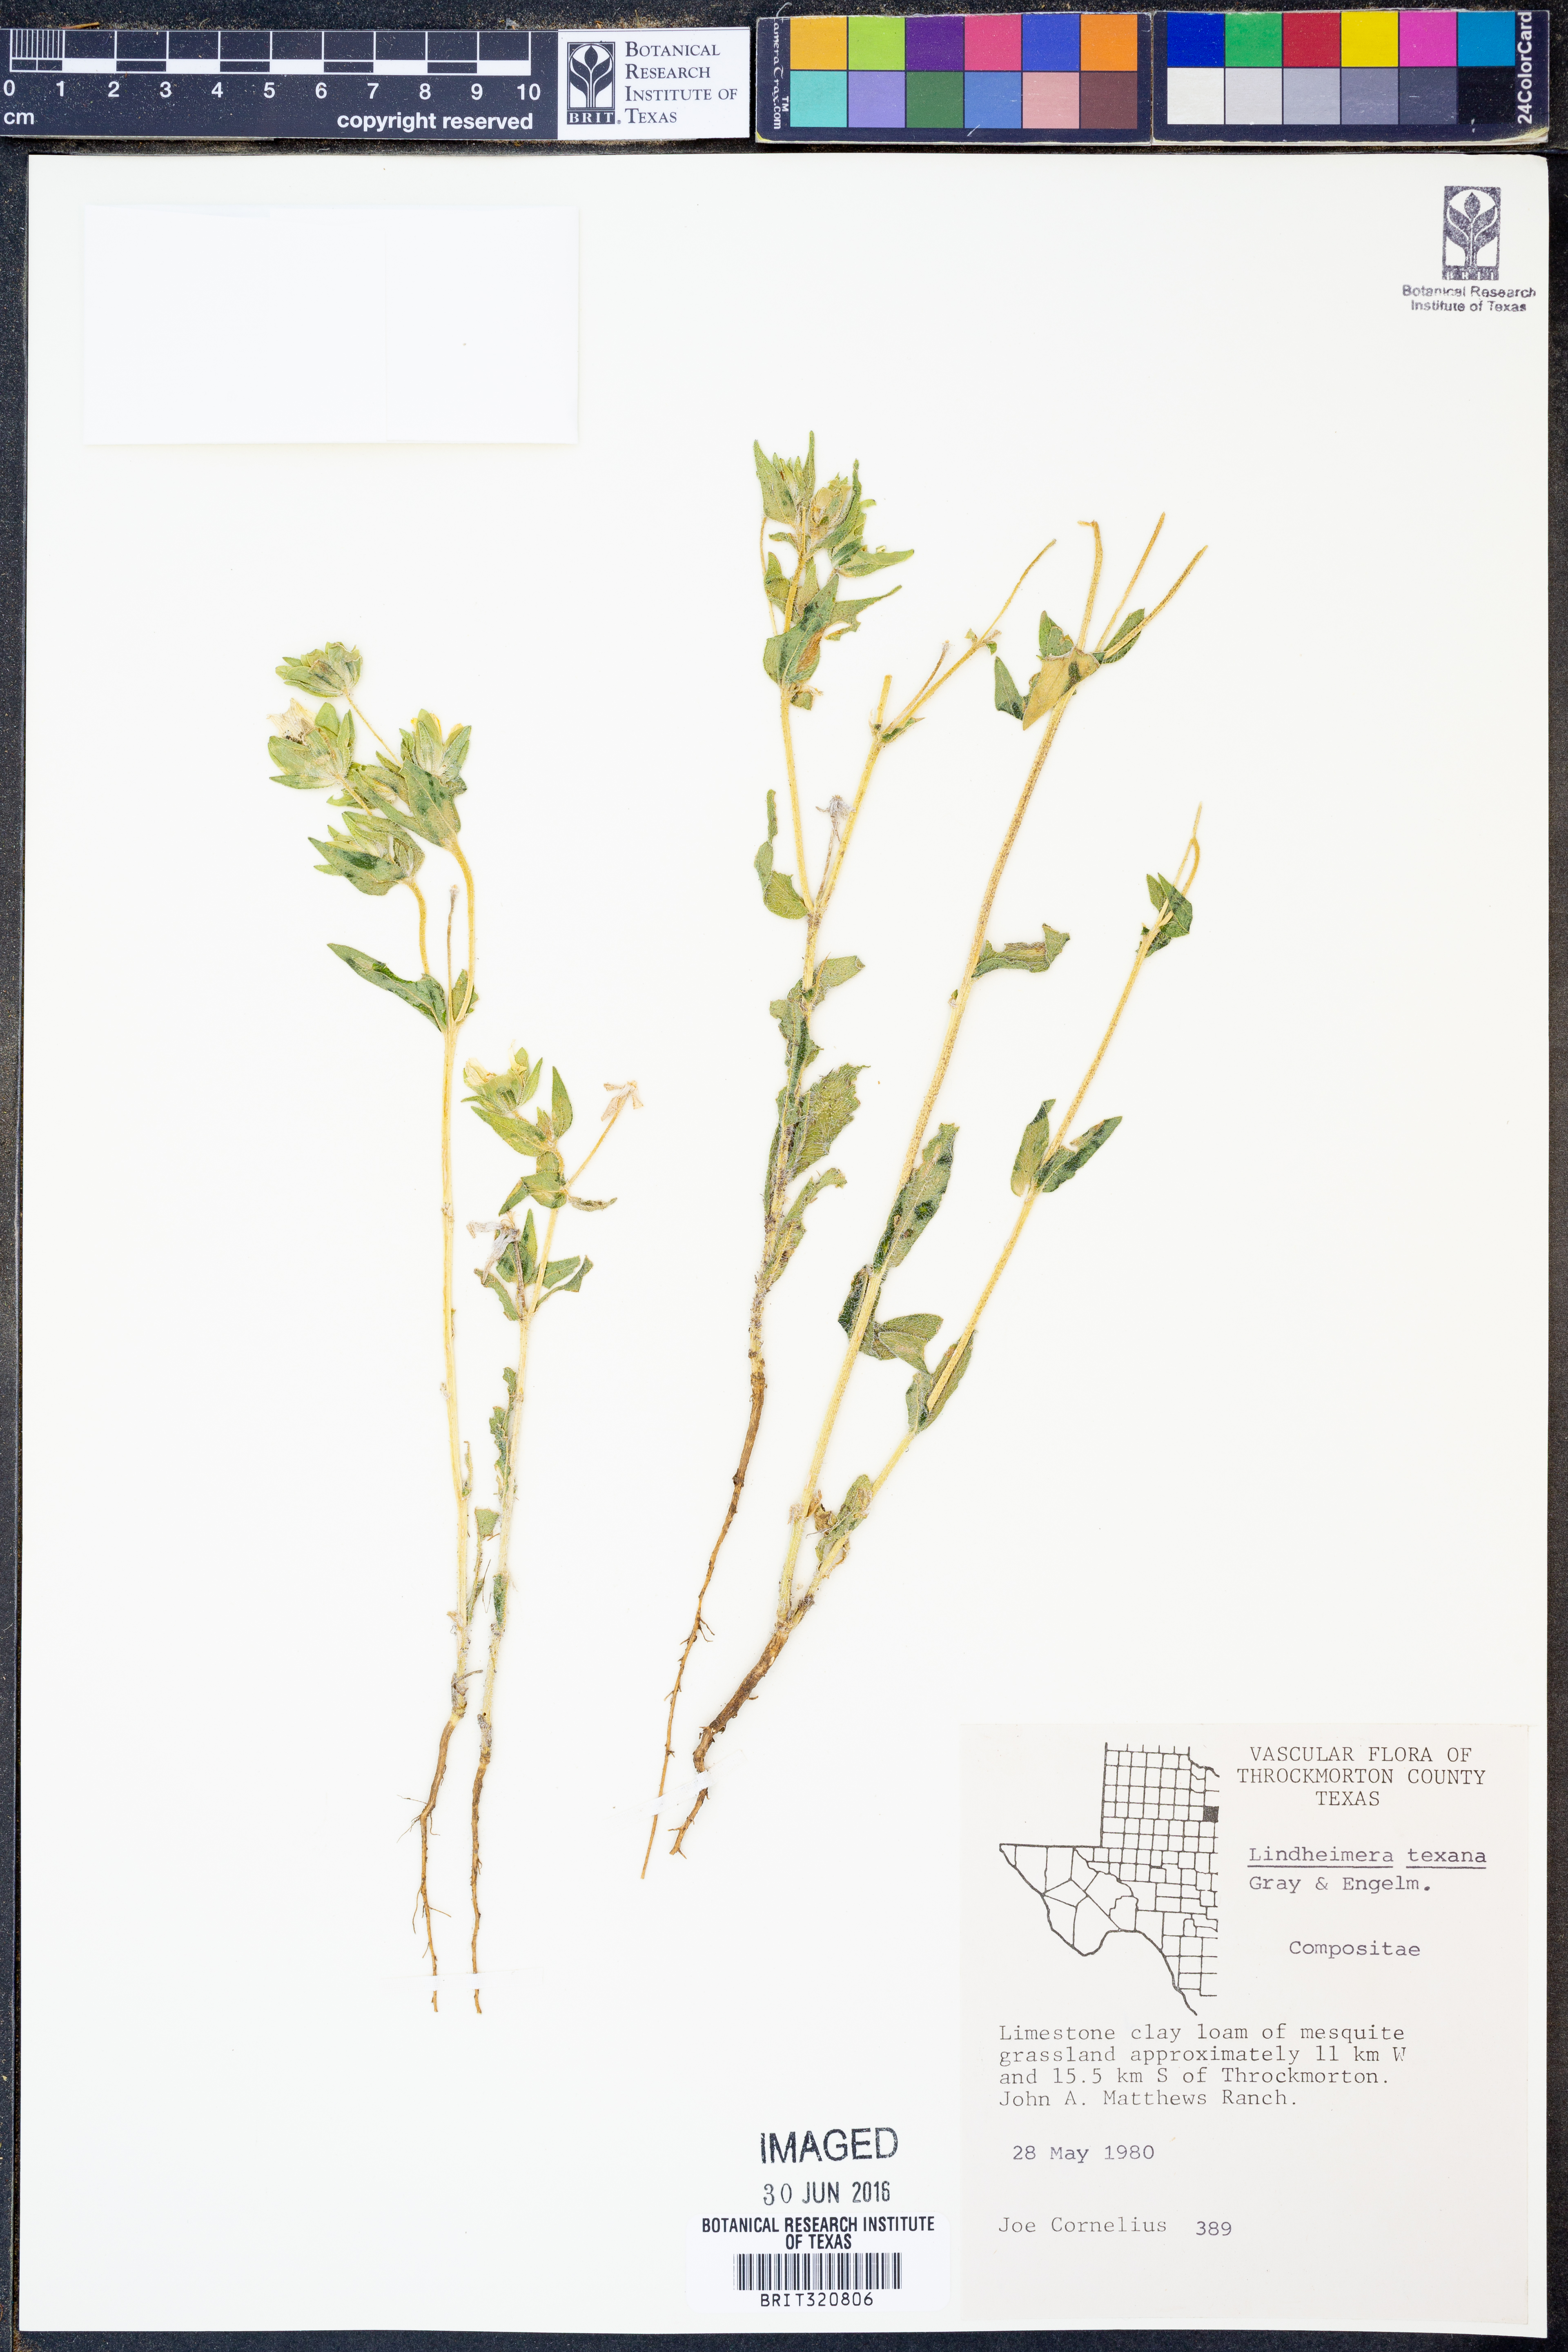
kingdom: Plantae
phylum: Tracheophyta
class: Magnoliopsida
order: Asterales
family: Asteraceae
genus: Lindheimera
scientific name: Lindheimera texana
